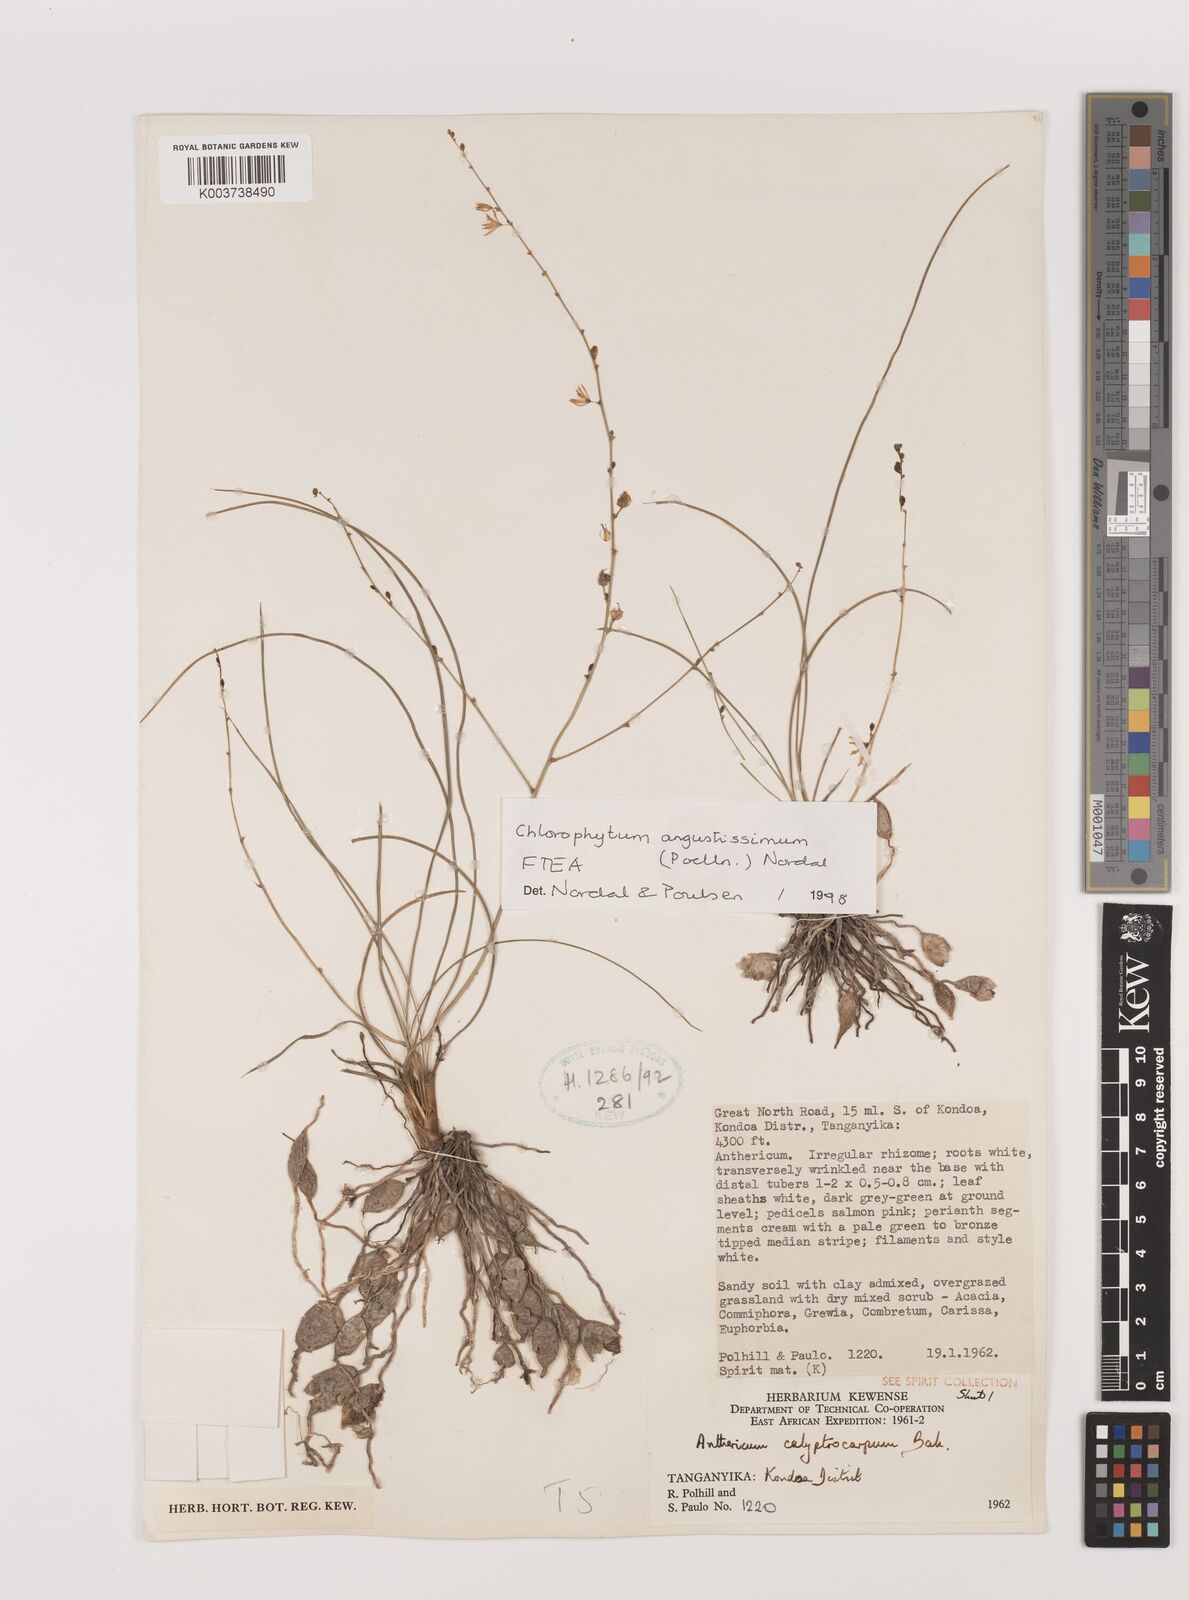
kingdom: Plantae
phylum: Tracheophyta
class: Liliopsida
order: Asparagales
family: Asparagaceae
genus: Chlorophytum
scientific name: Chlorophytum angustissimum
